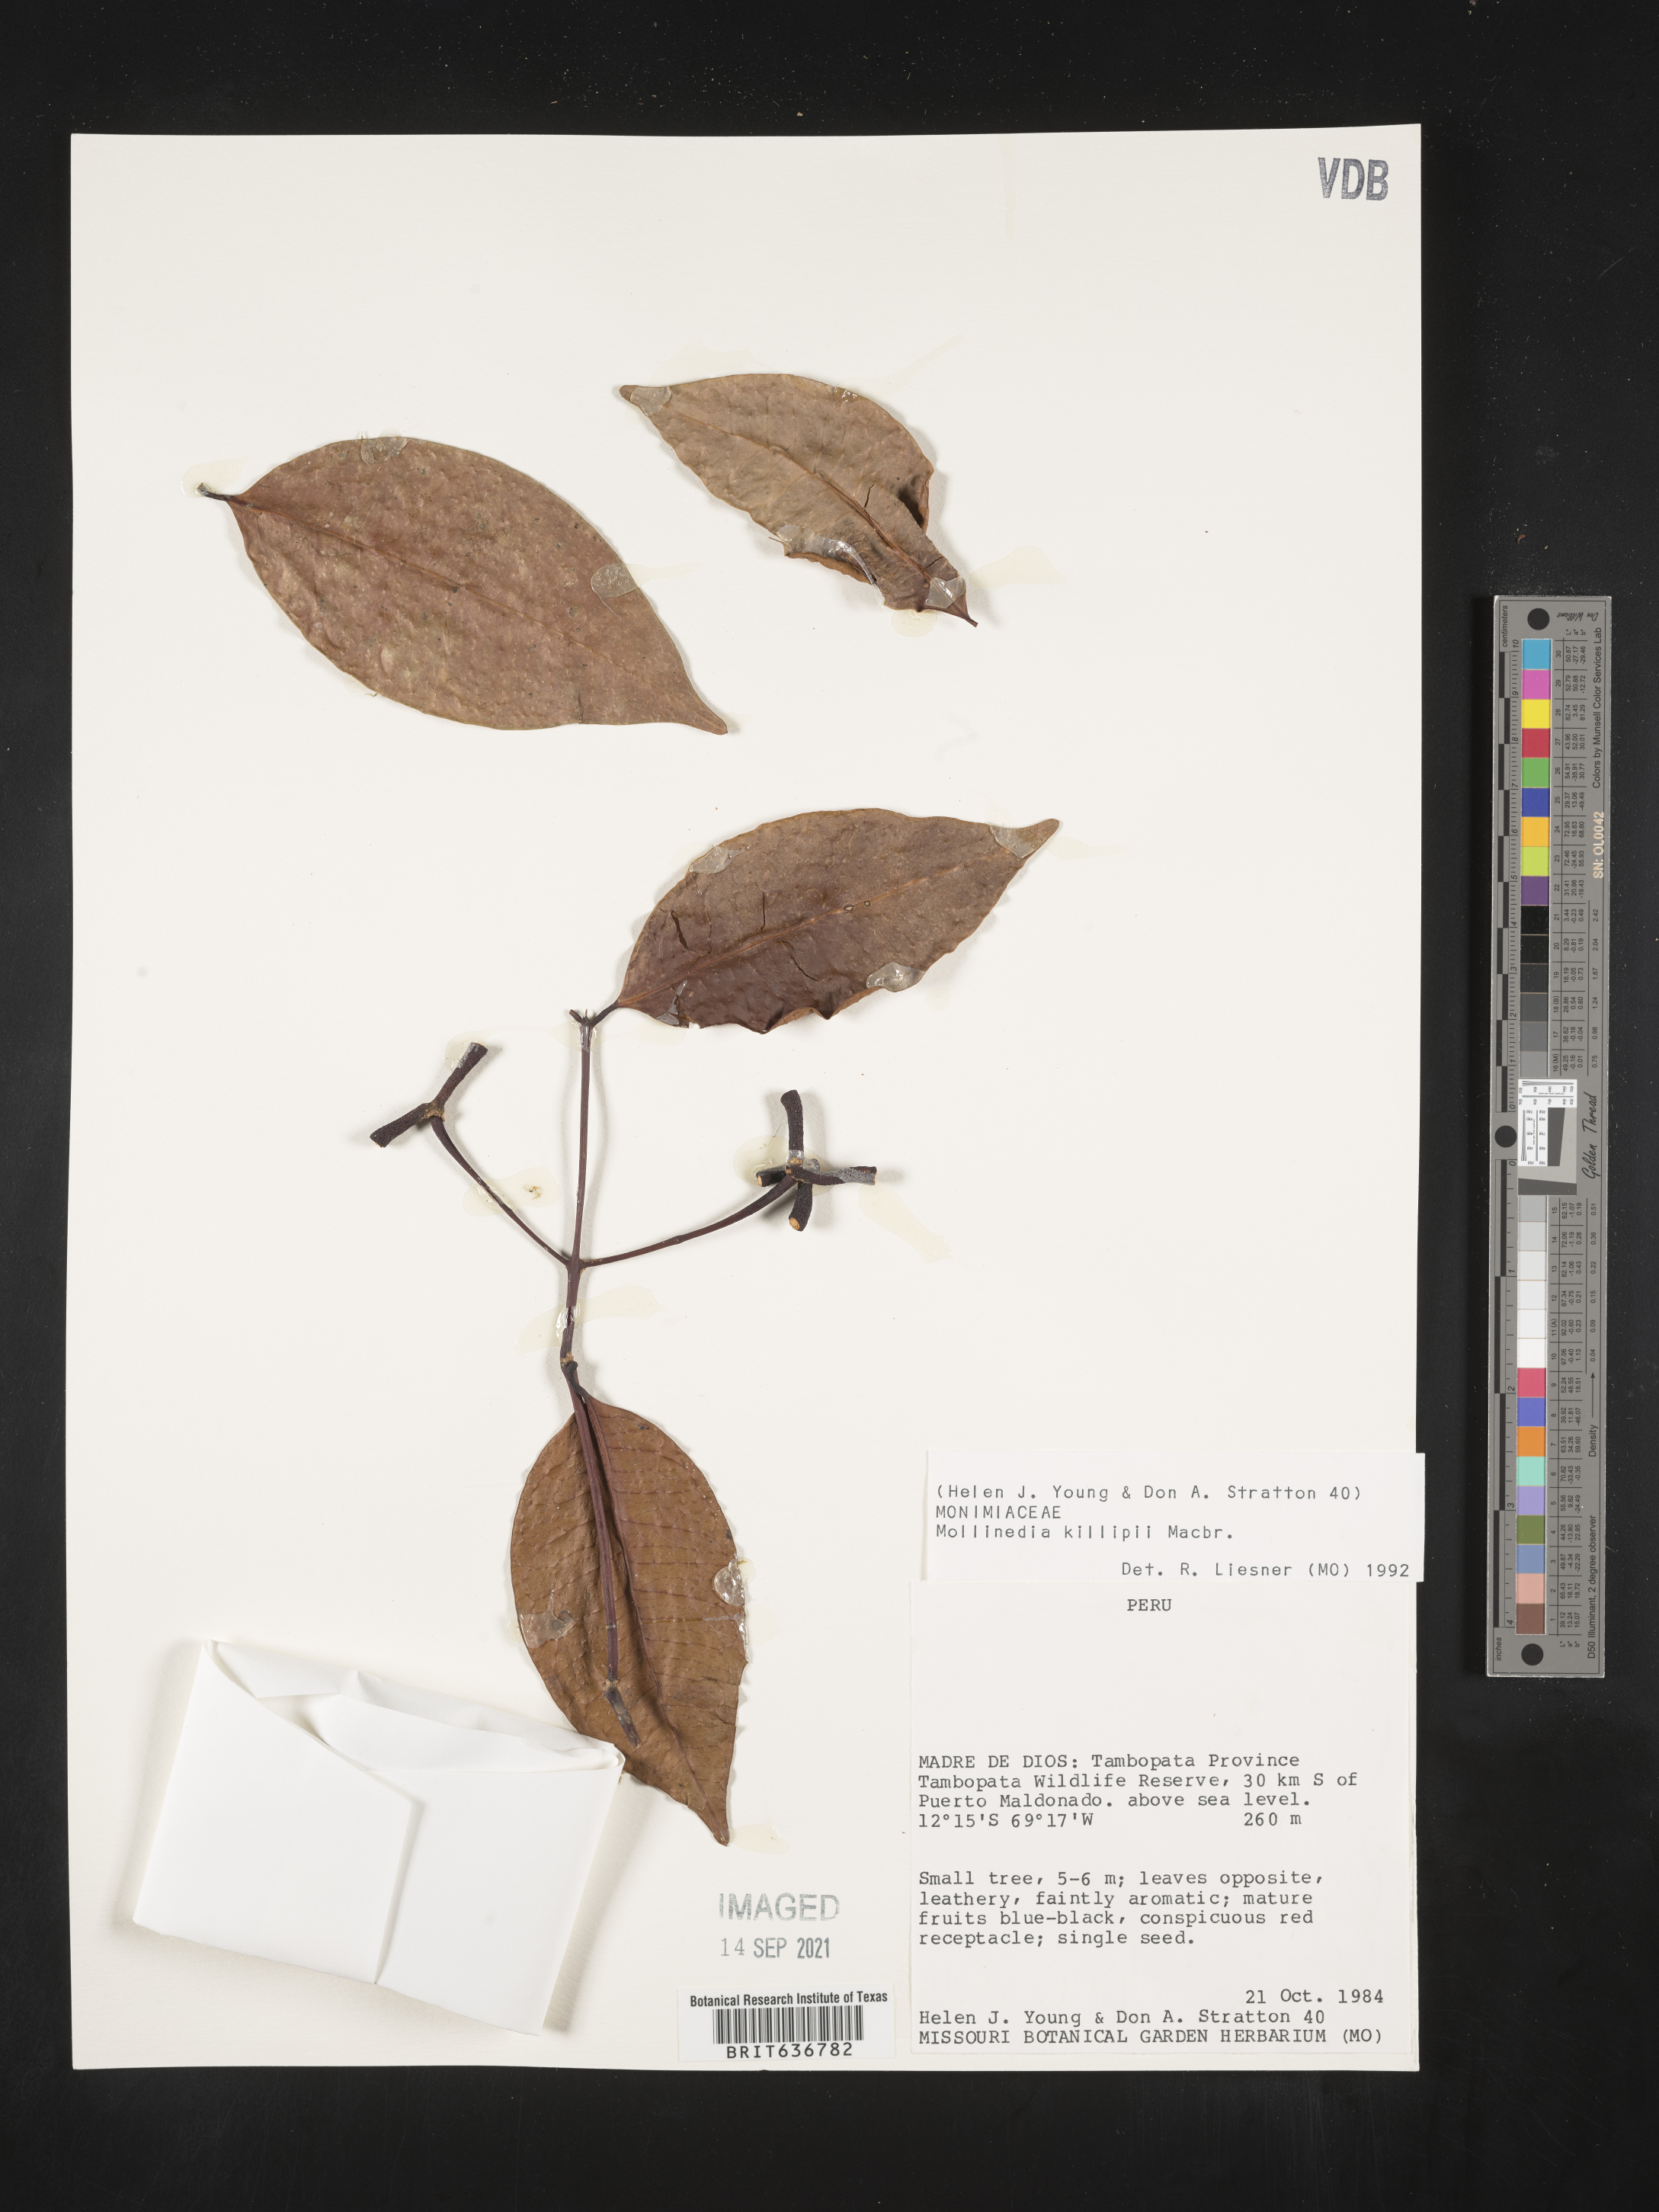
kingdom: Plantae
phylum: Tracheophyta
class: Magnoliopsida
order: Laurales
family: Monimiaceae
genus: Mollinedia
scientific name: Mollinedia
